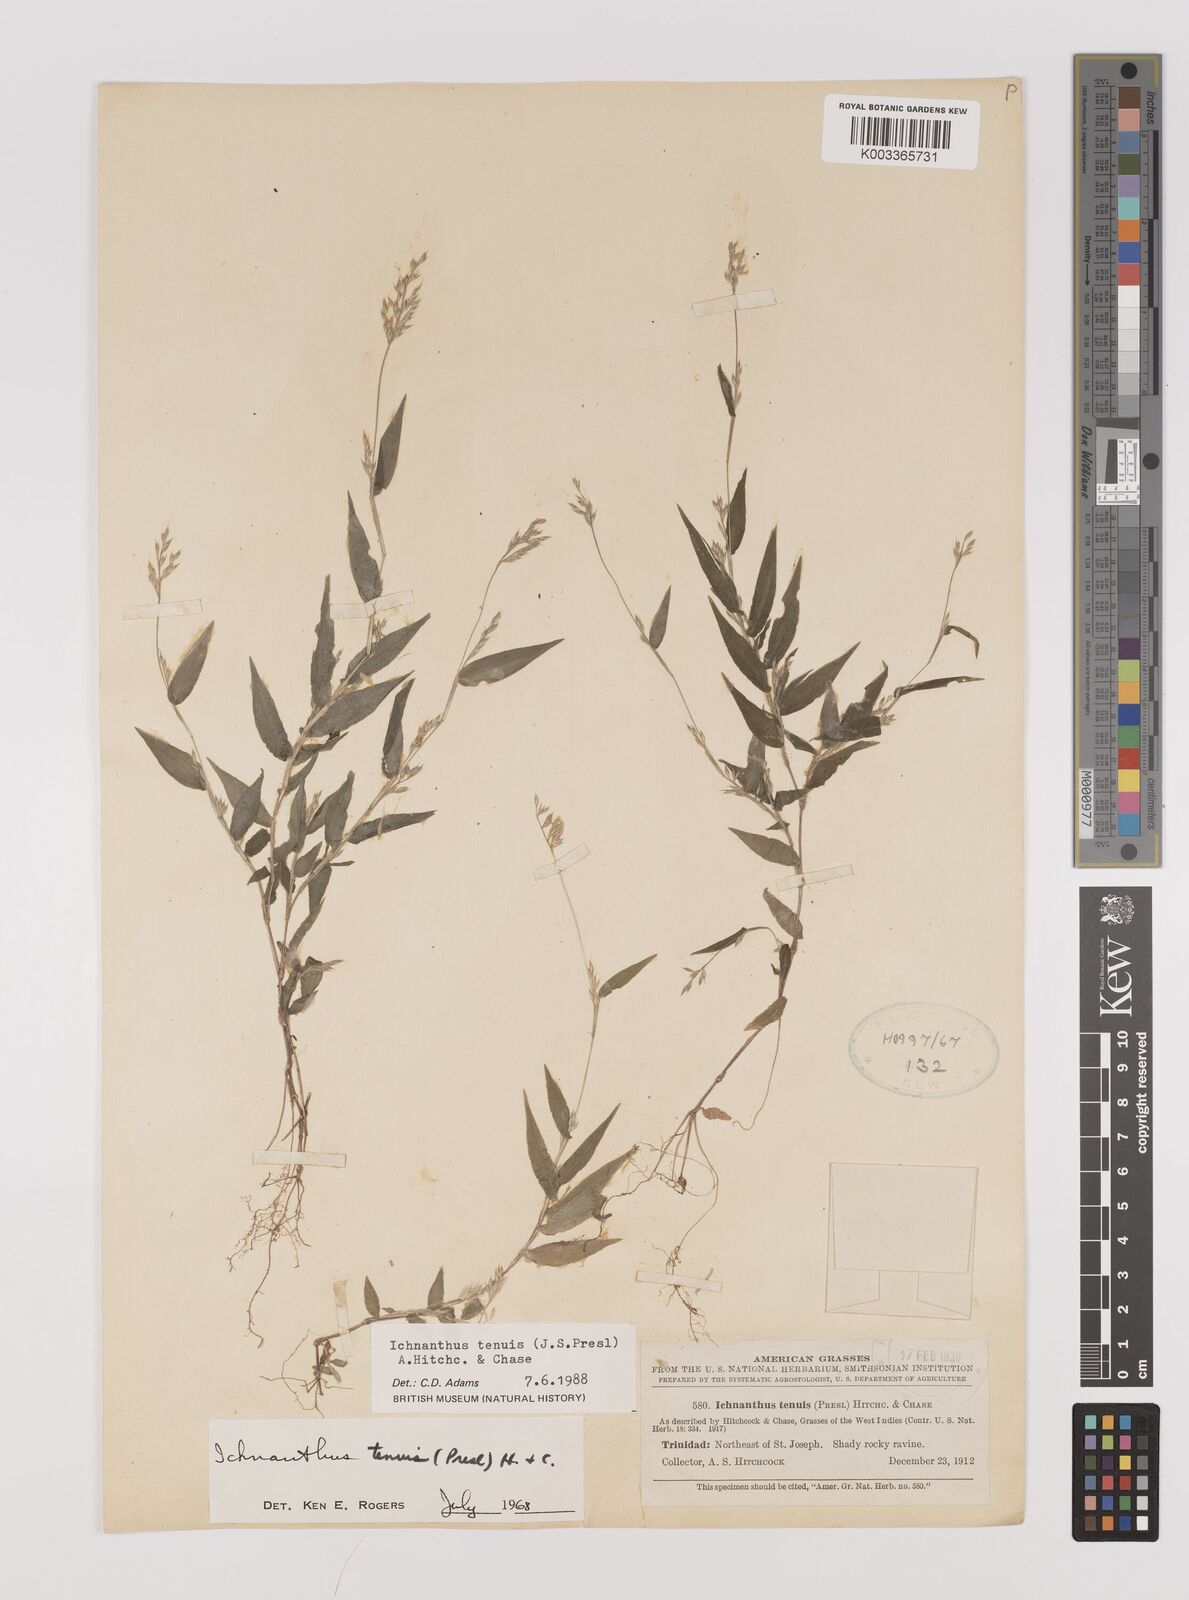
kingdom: Plantae
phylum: Tracheophyta
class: Liliopsida
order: Poales
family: Poaceae
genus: Ichnanthus
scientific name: Ichnanthus tenuis
